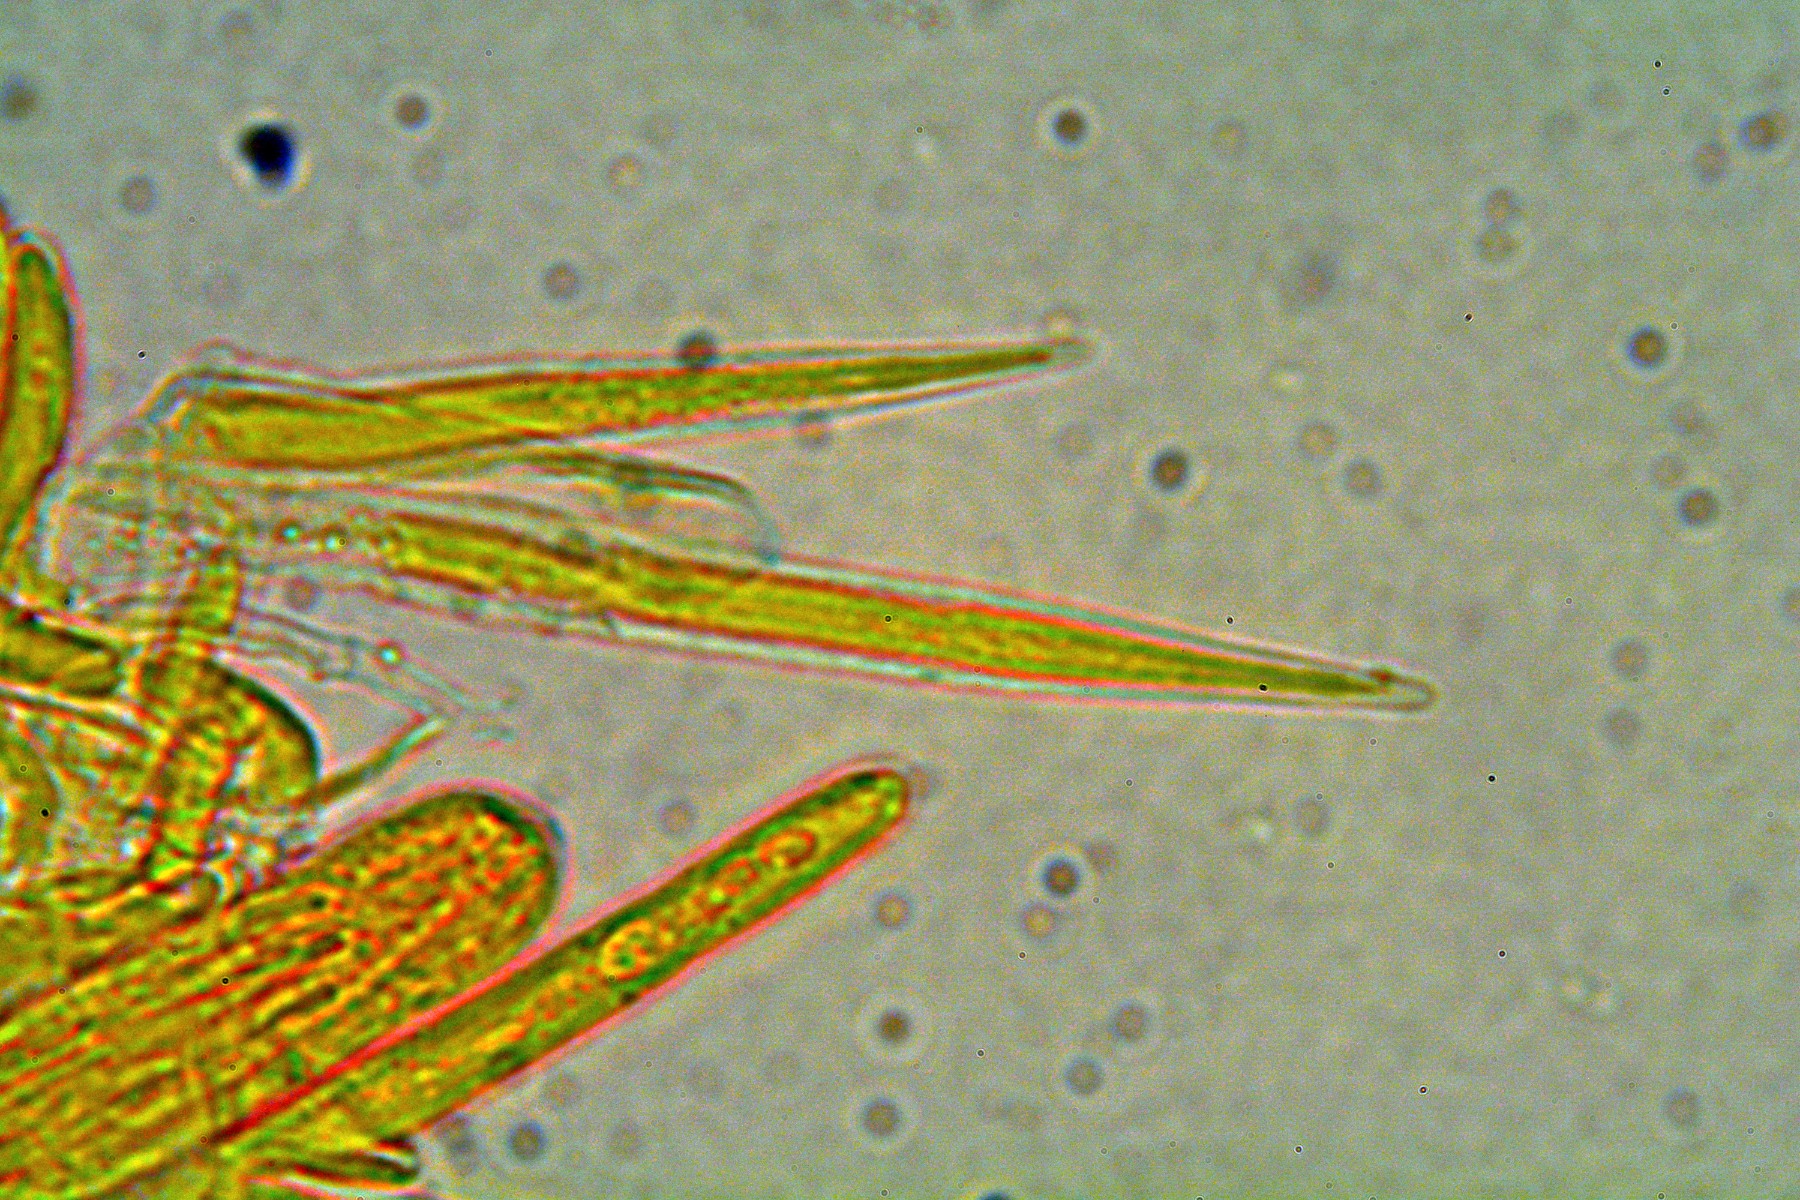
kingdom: Fungi
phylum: Ascomycota
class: Leotiomycetes
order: Helotiales
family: Lachnaceae
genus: Lachnum
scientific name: Lachnum apalum
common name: siv-frynseskive
